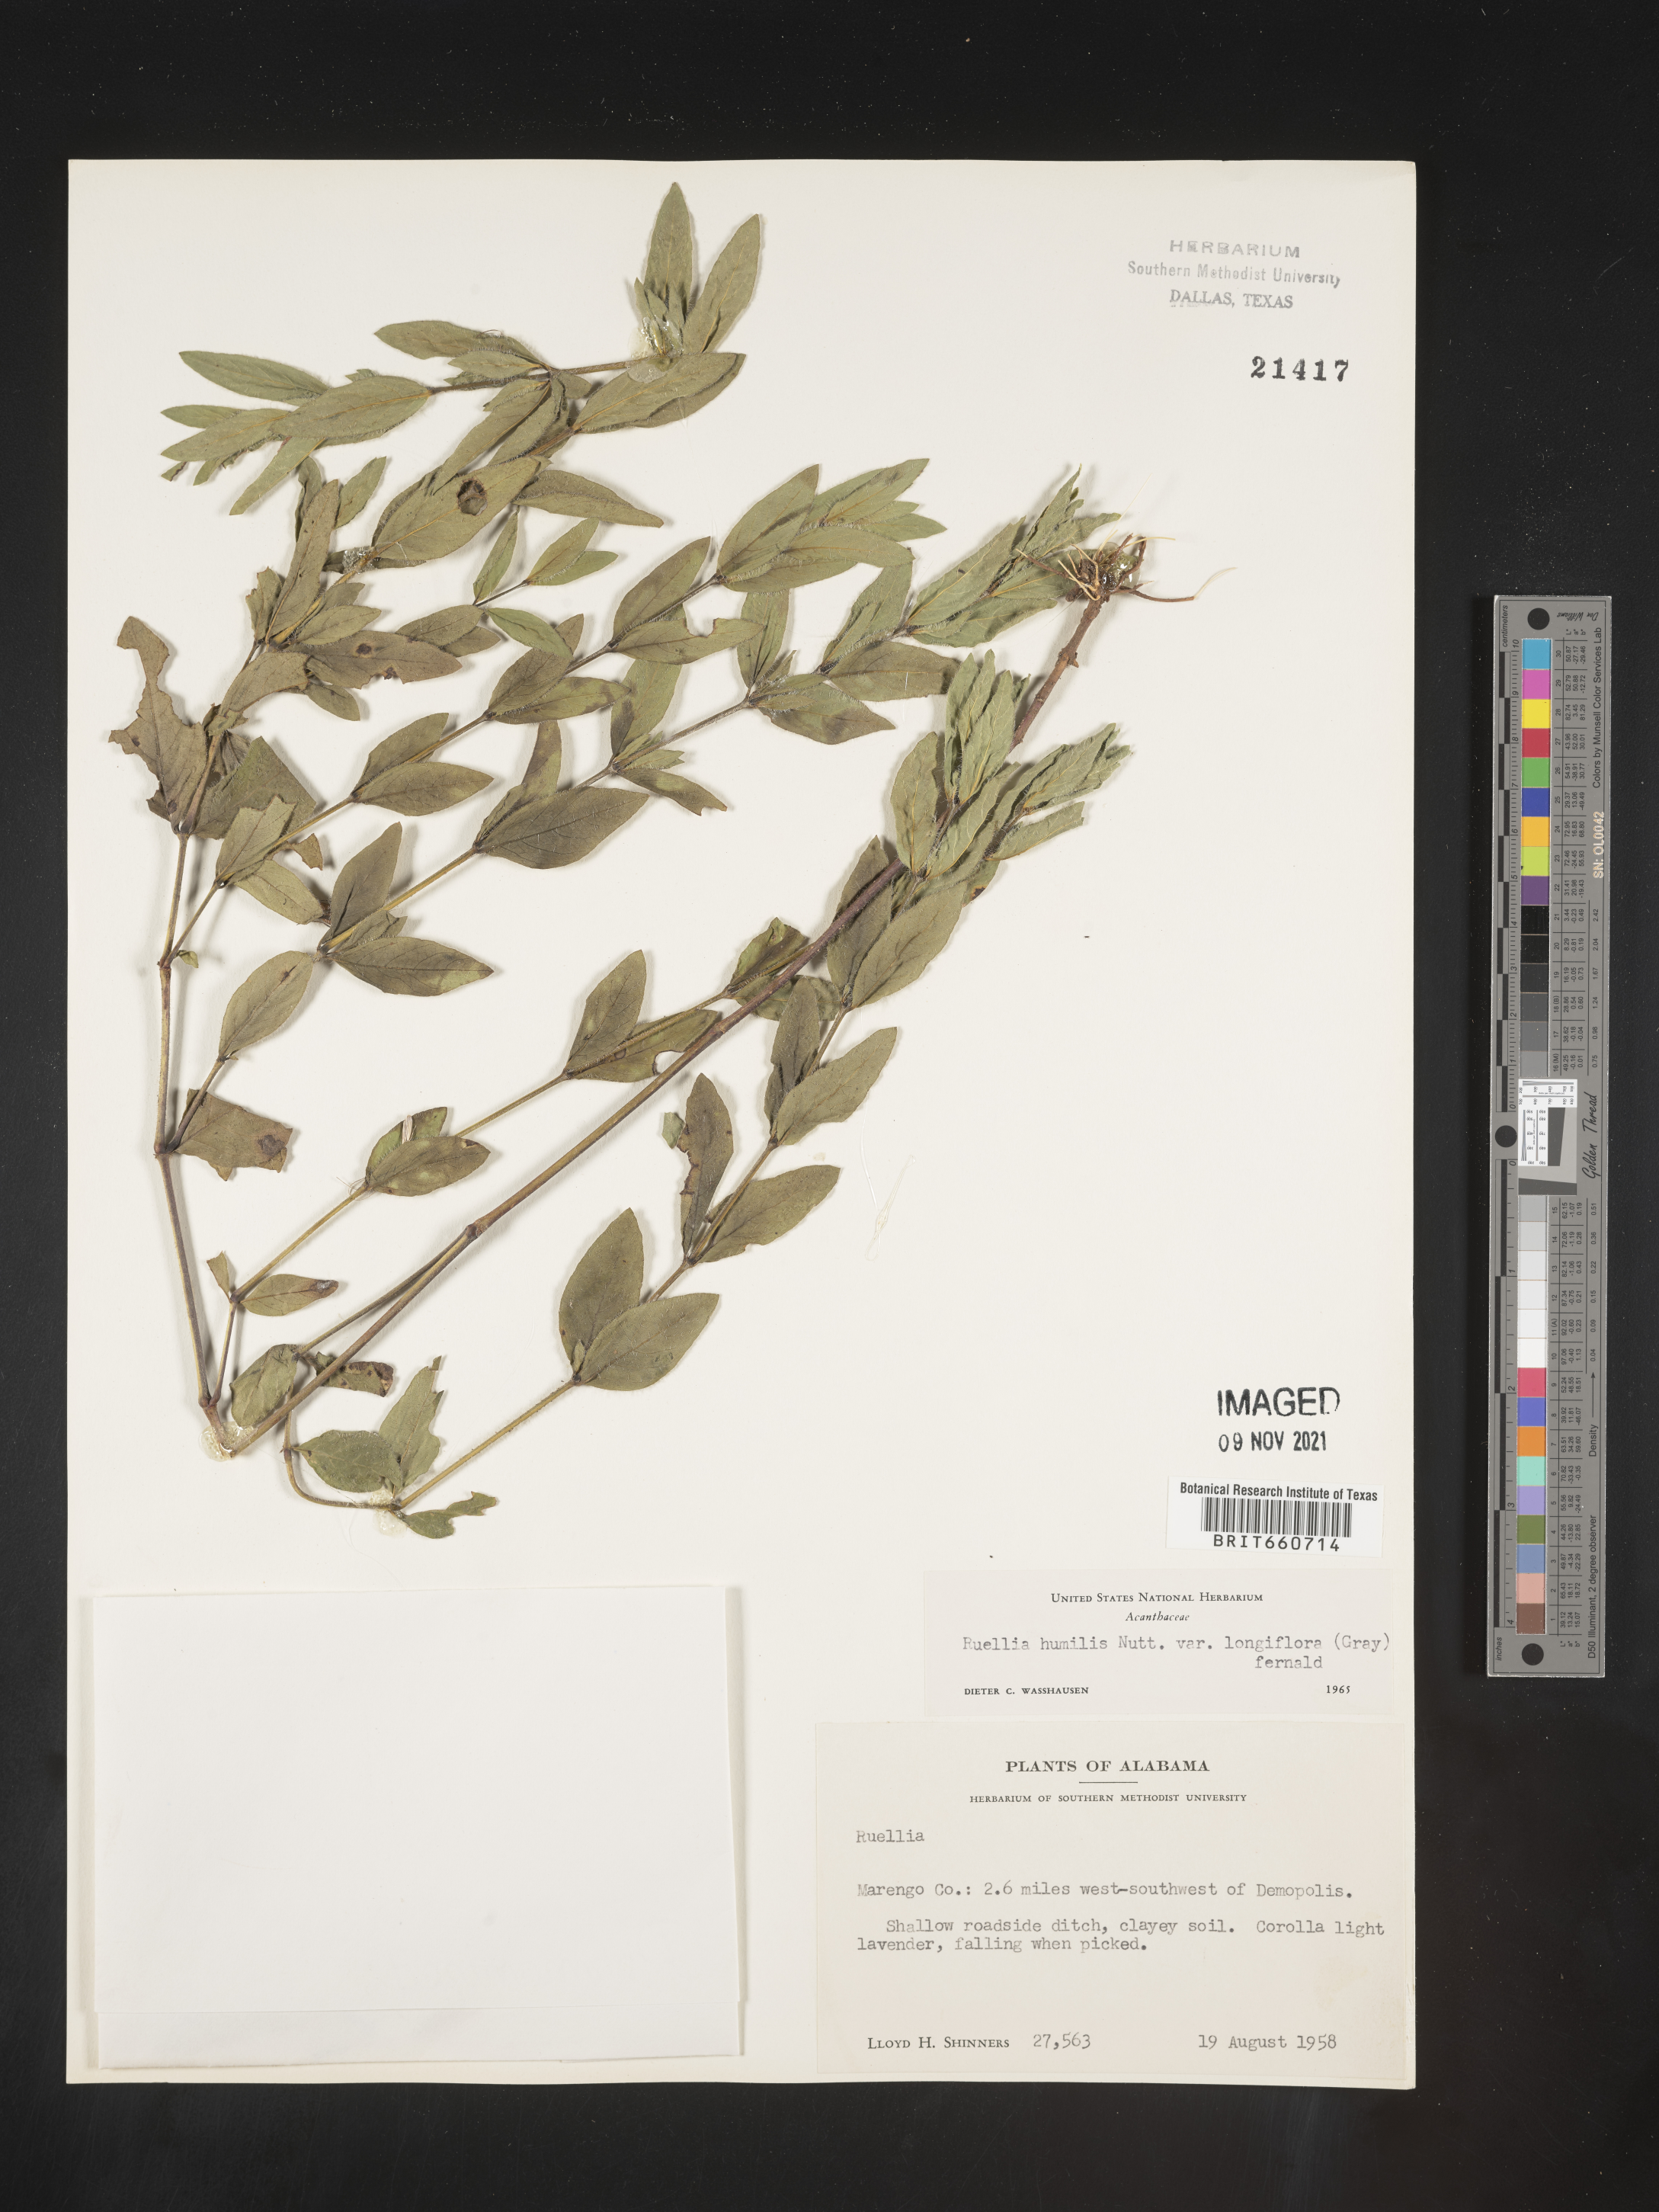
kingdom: Plantae
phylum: Tracheophyta
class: Magnoliopsida
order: Lamiales
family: Acanthaceae
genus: Ruellia
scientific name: Ruellia humilis
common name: Fringe-leaf ruellia
